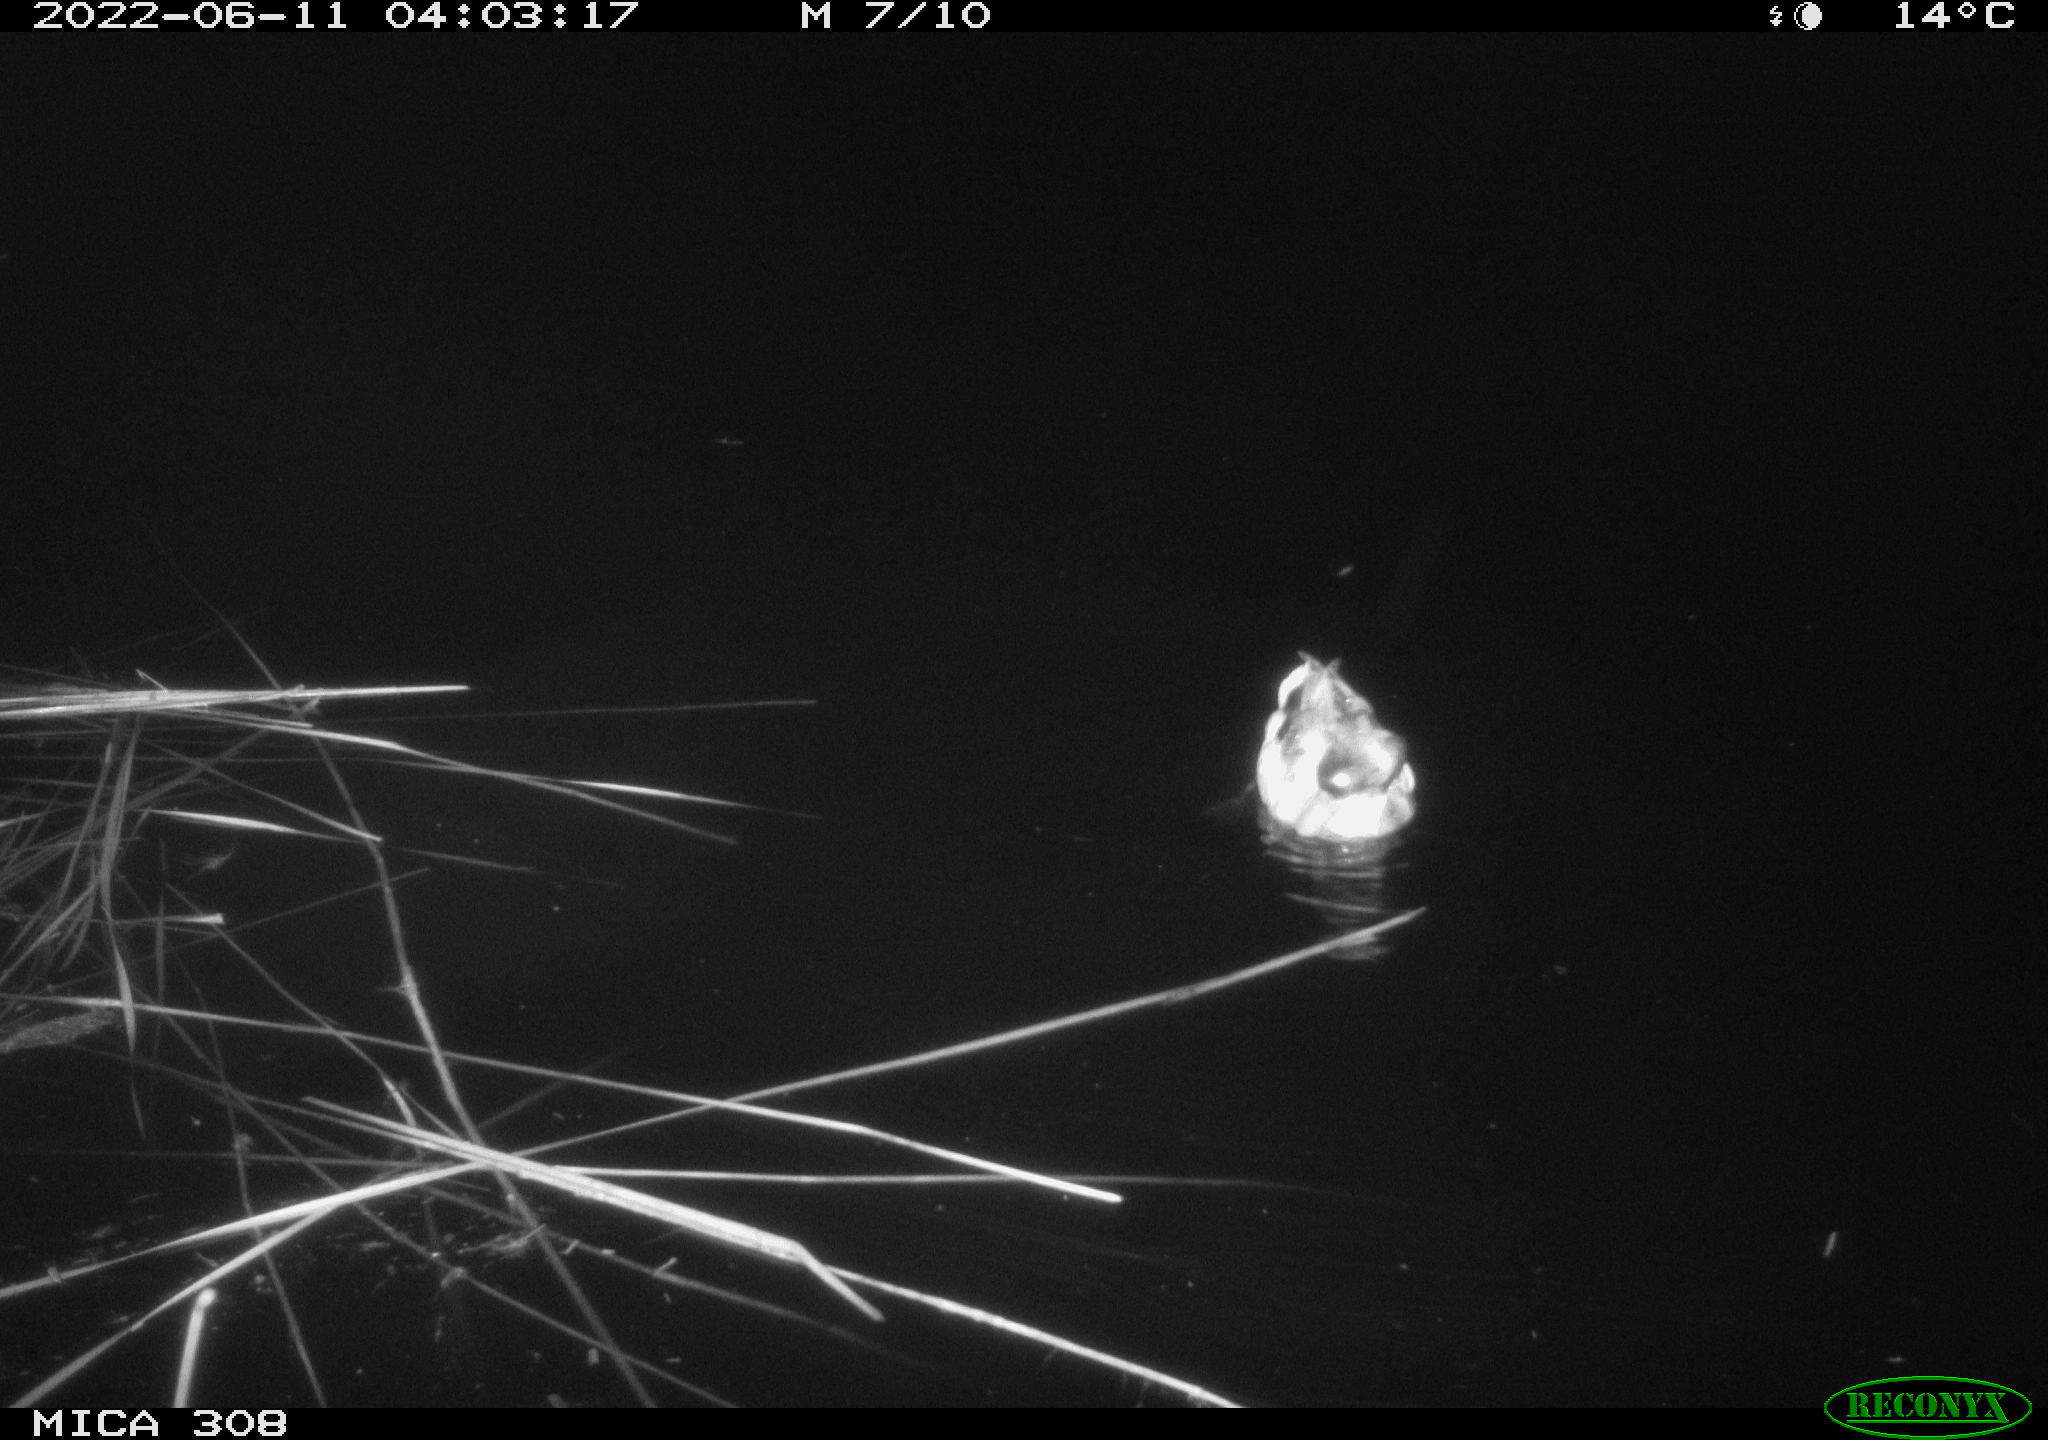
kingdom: Animalia
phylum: Chordata
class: Aves
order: Anseriformes
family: Anatidae
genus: Anas
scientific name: Anas platyrhynchos
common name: Mallard
